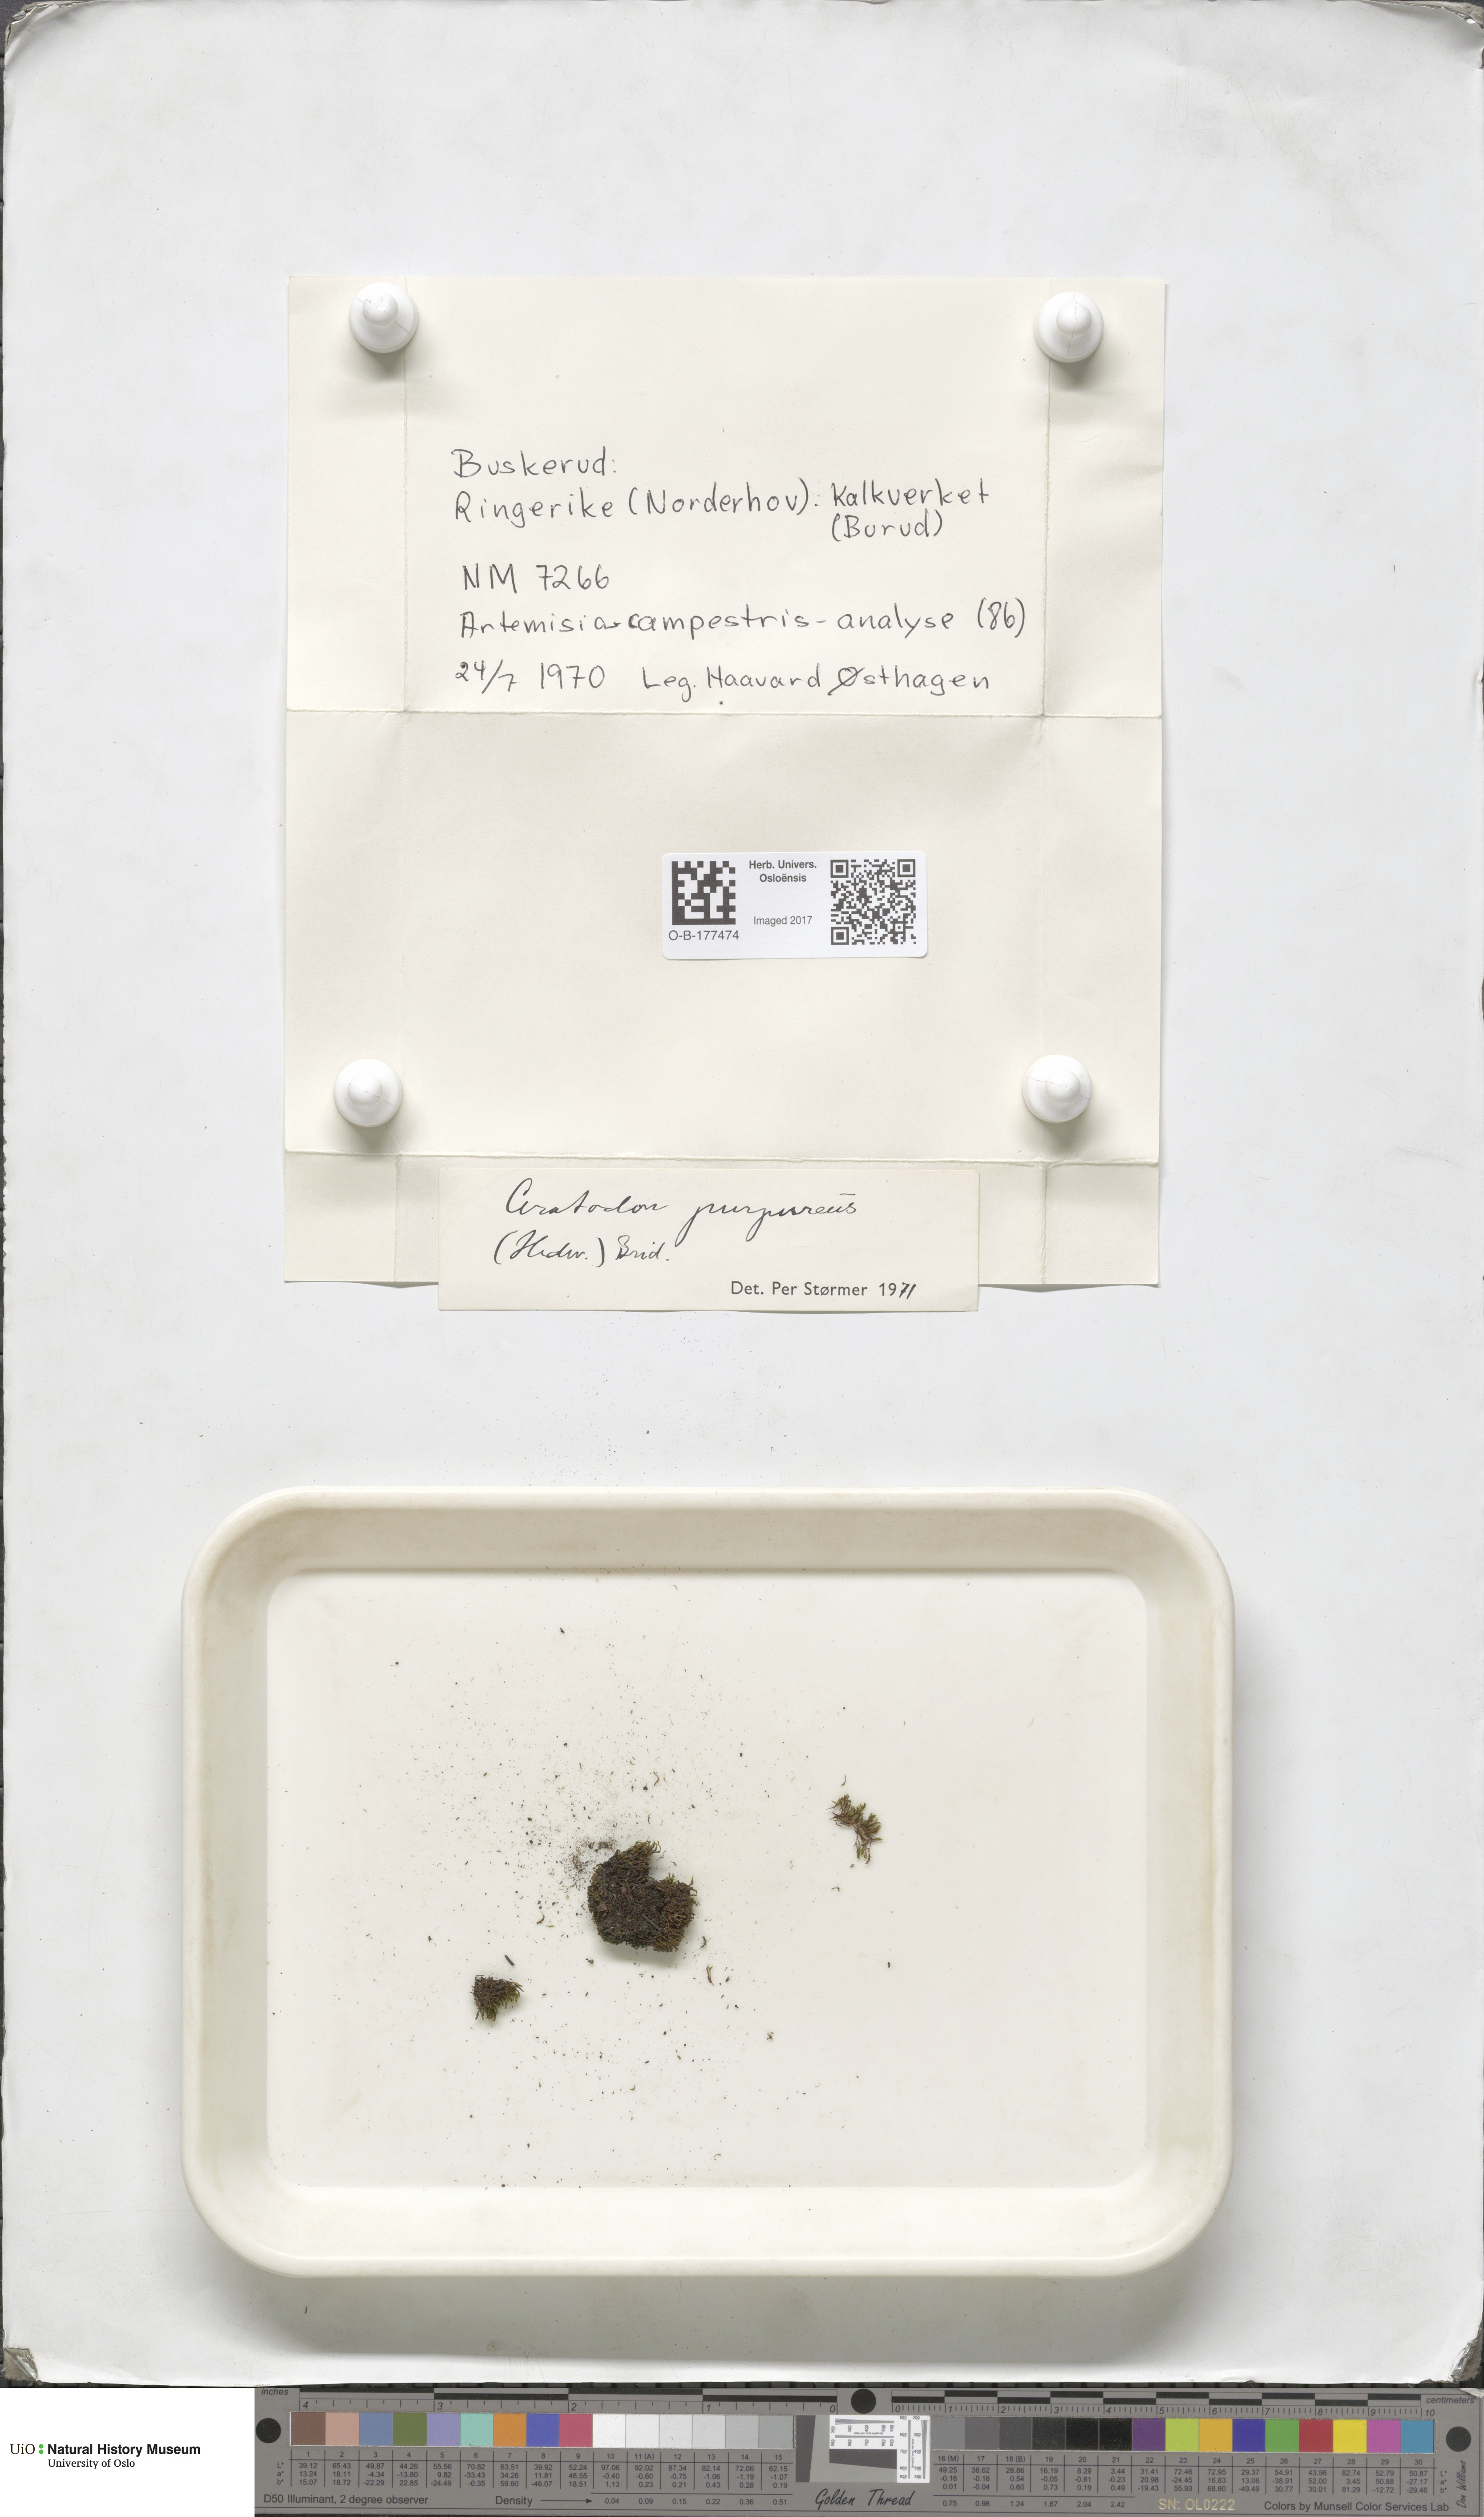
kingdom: Plantae
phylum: Bryophyta
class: Bryopsida
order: Dicranales
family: Ditrichaceae
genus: Ceratodon
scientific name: Ceratodon purpureus
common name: Redshank
